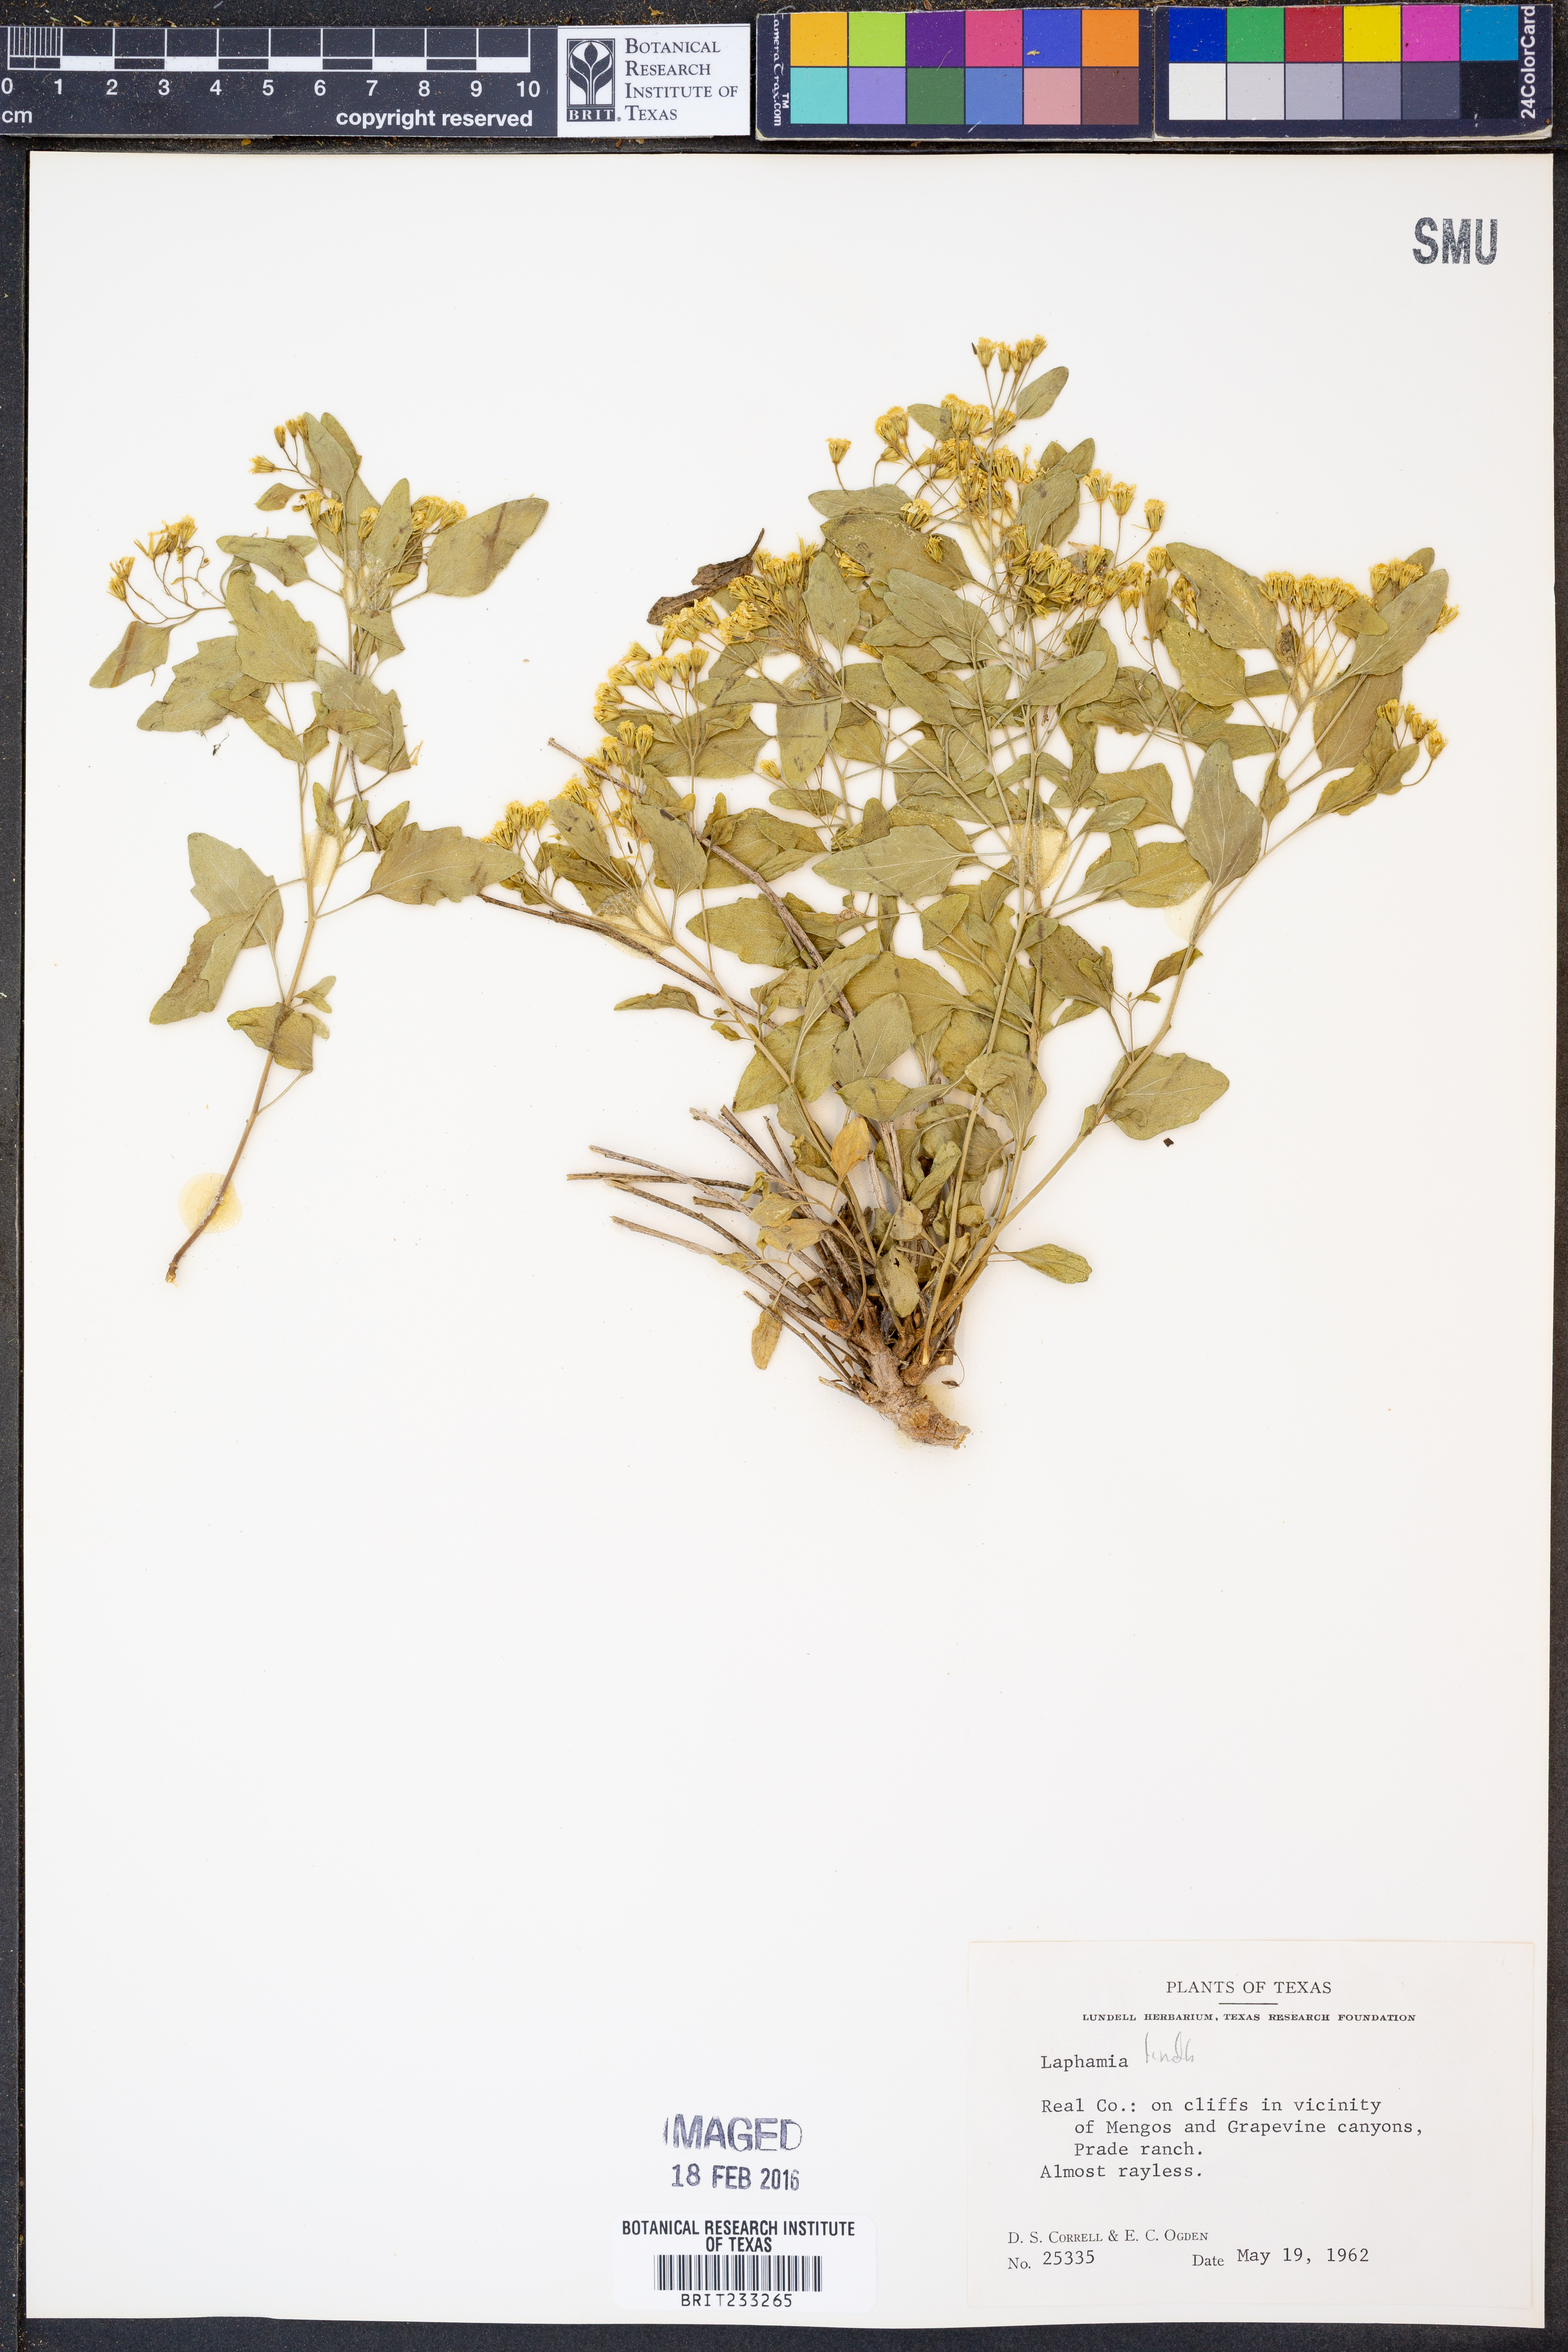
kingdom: Plantae
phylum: Tracheophyta
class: Magnoliopsida
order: Asterales
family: Asteraceae
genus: Laphamia
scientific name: Laphamia lindheimeri
